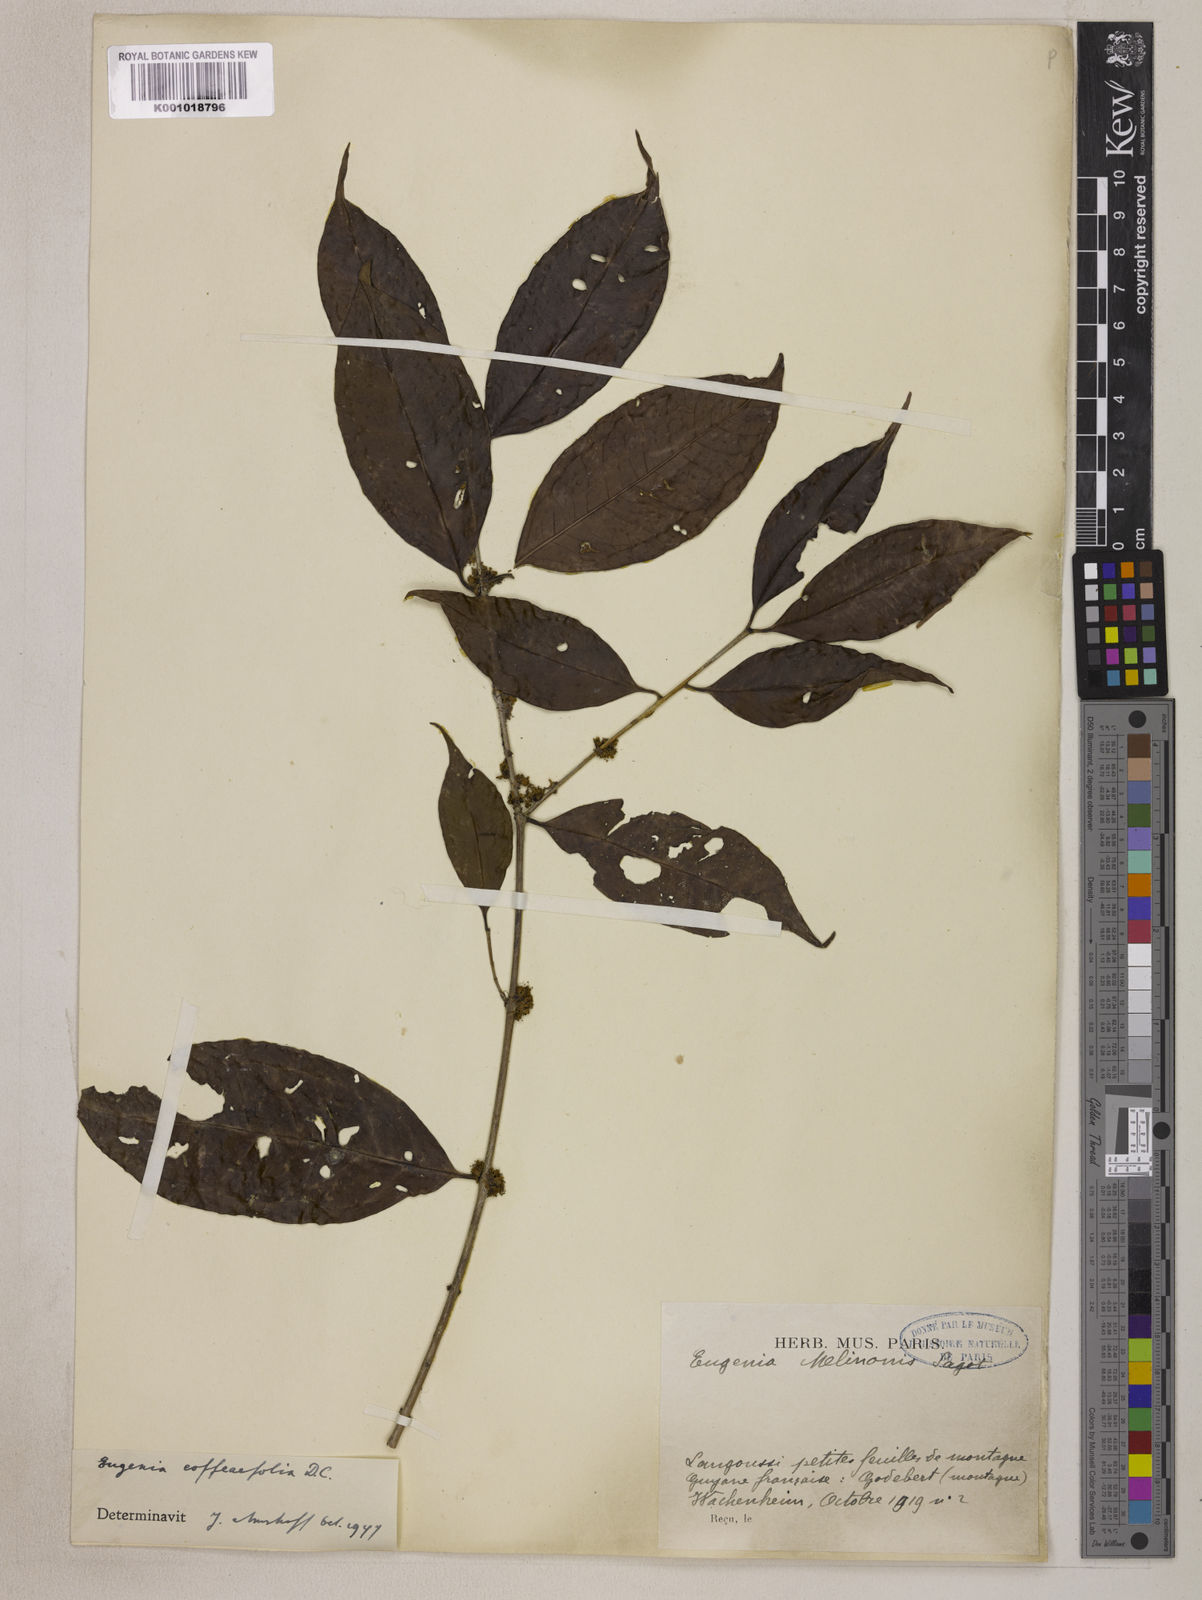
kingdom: Plantae
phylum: Tracheophyta
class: Magnoliopsida
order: Myrtales
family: Myrtaceae
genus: Eugenia
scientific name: Eugenia coffeifolia
